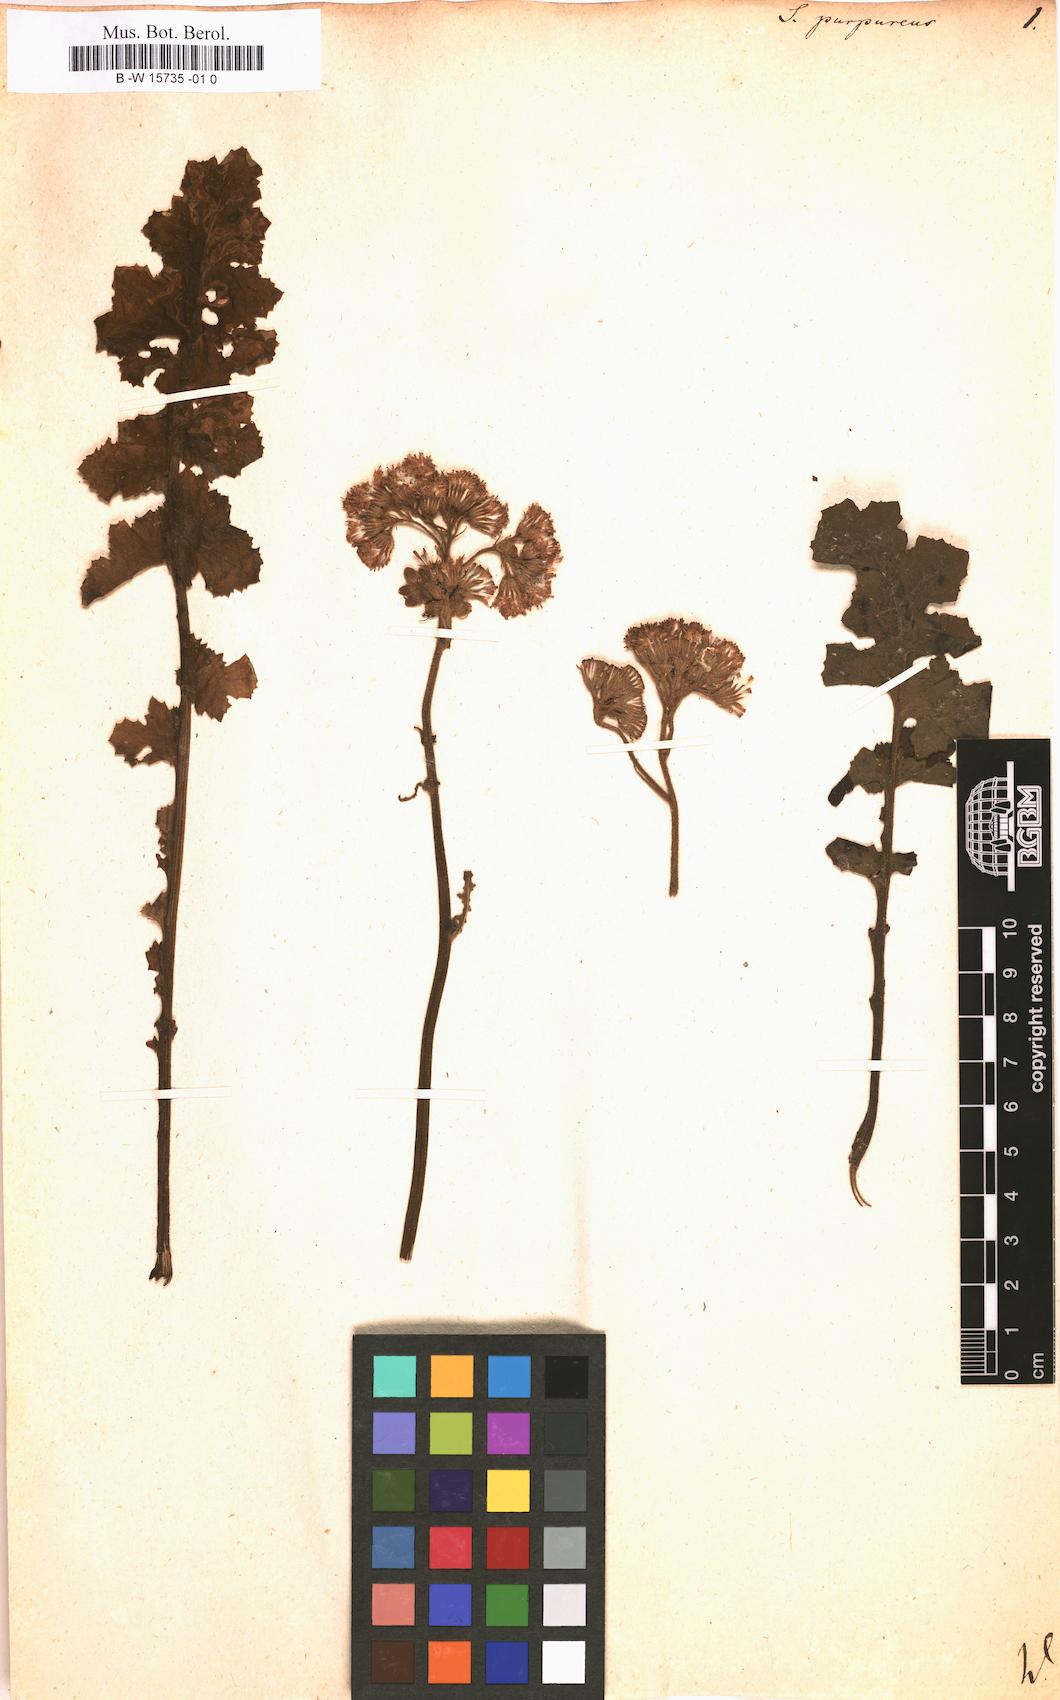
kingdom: Plantae
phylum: Tracheophyta
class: Magnoliopsida
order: Asterales
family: Asteraceae
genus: Senecio
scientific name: Senecio purpureus
